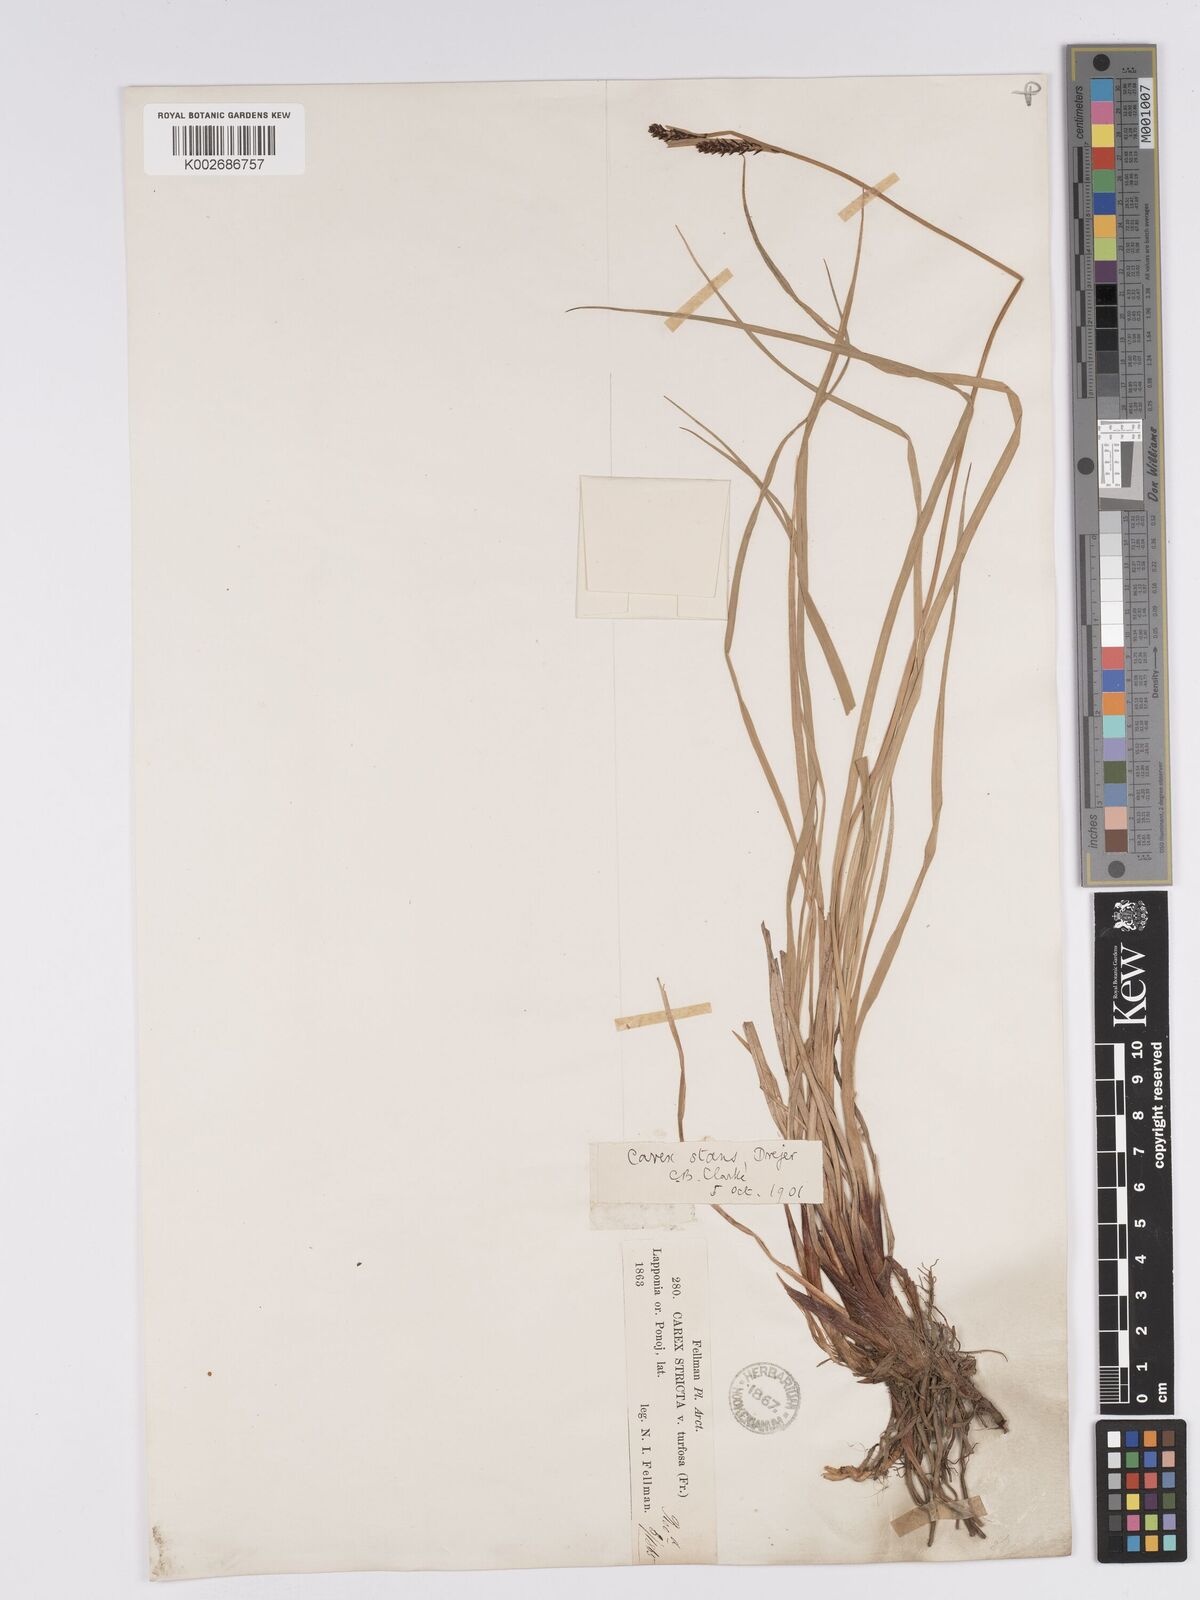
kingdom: Plantae
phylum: Tracheophyta
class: Liliopsida
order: Poales
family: Cyperaceae
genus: Carex
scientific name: Carex aquatilis
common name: Water sedge
